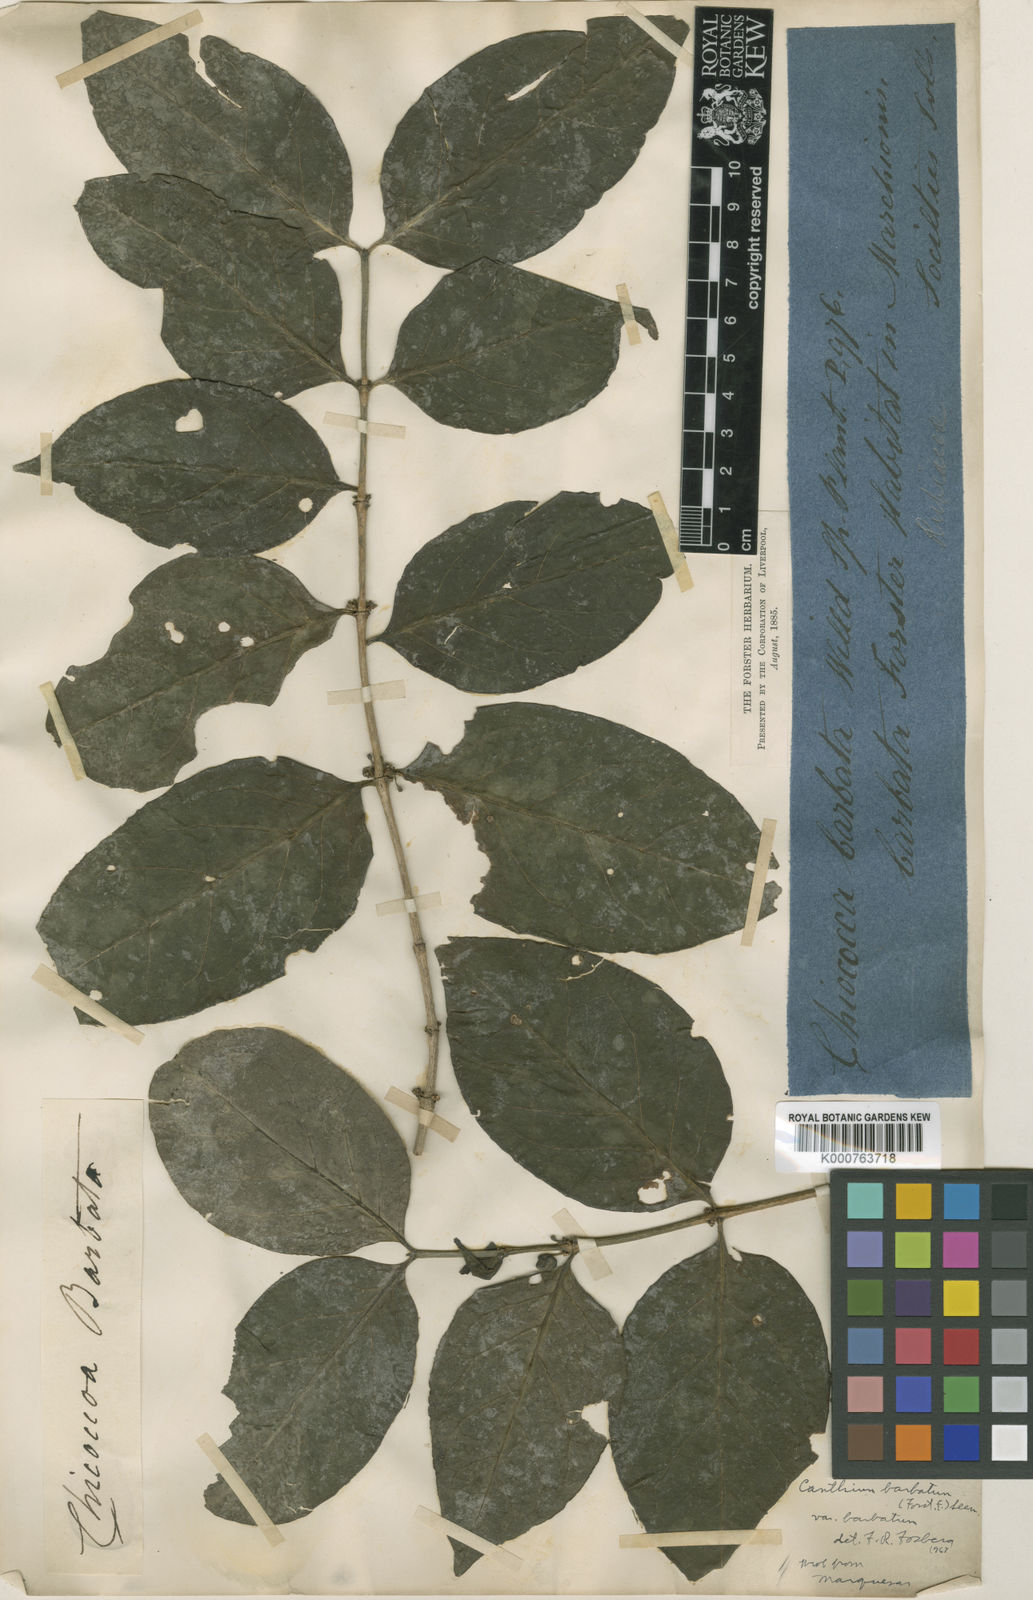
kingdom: Plantae
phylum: Tracheophyta
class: Magnoliopsida
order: Gentianales
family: Rubiaceae
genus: Cyclophyllum
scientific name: Cyclophyllum
